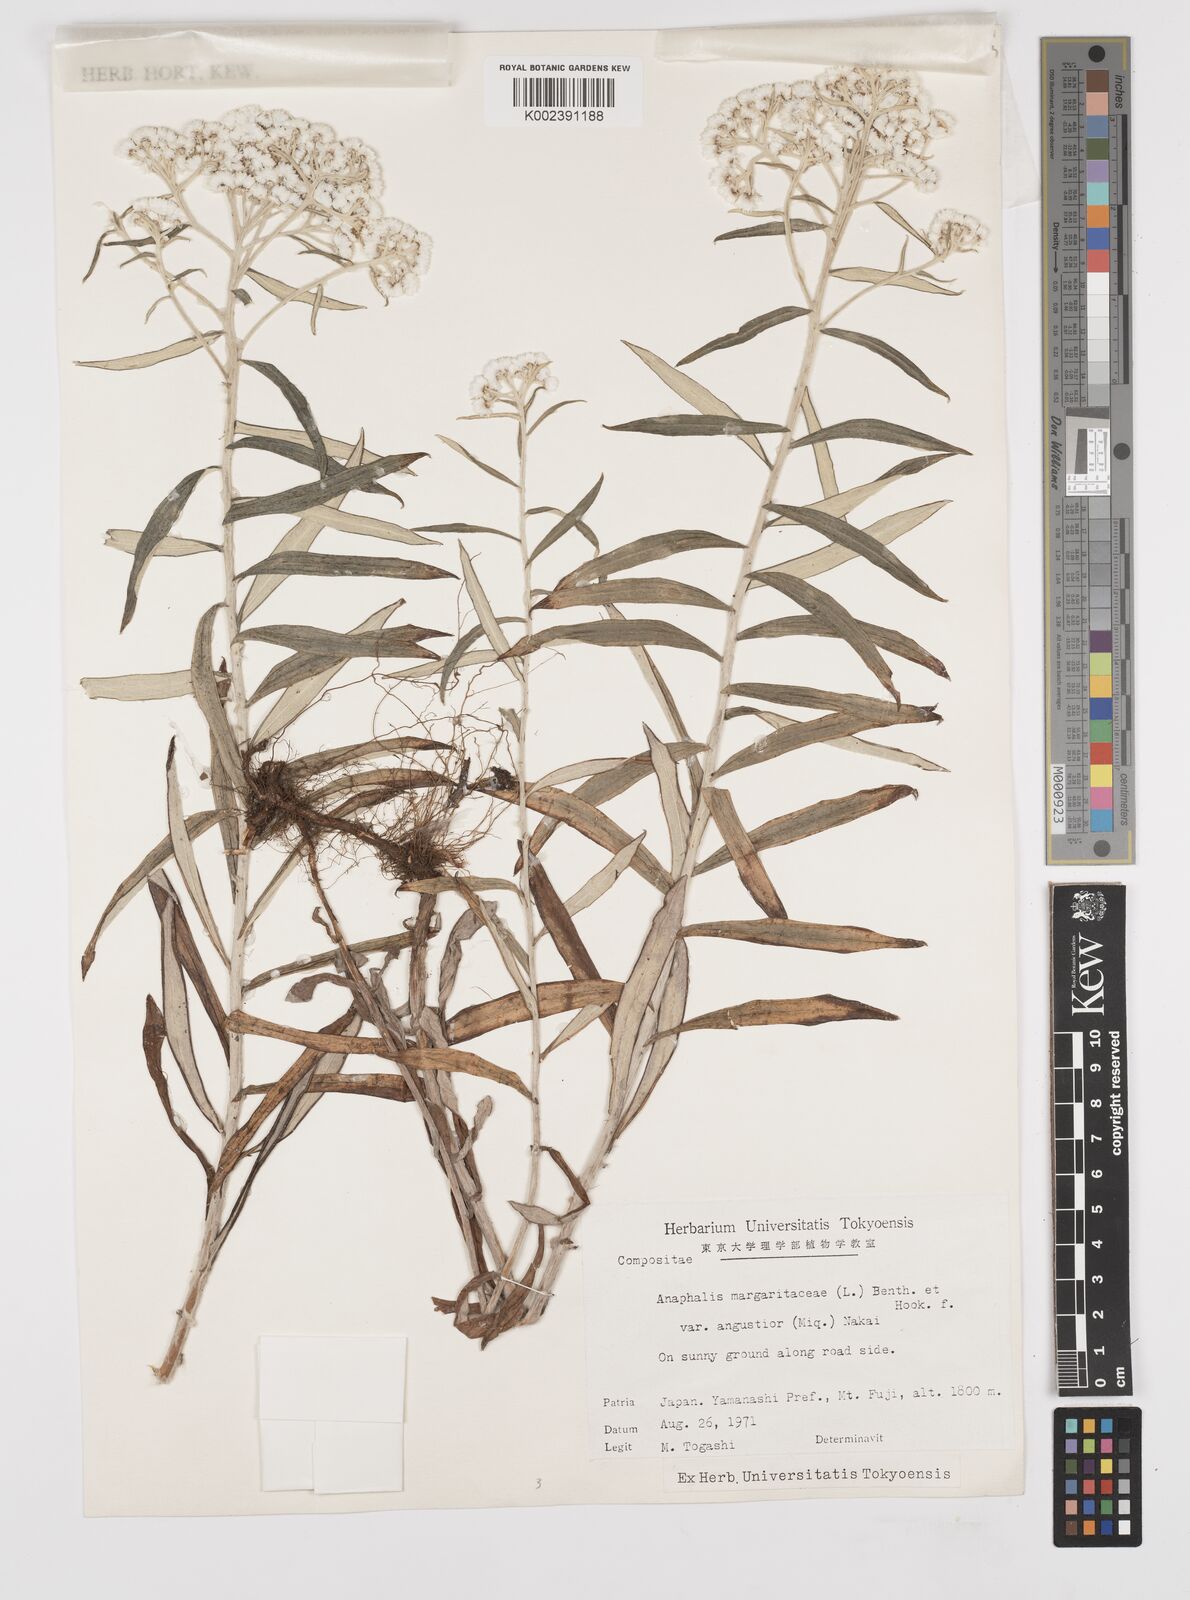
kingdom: Plantae
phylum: Tracheophyta
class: Magnoliopsida
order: Asterales
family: Asteraceae
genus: Anaphalis
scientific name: Anaphalis margaritacea
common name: Pearly everlasting
